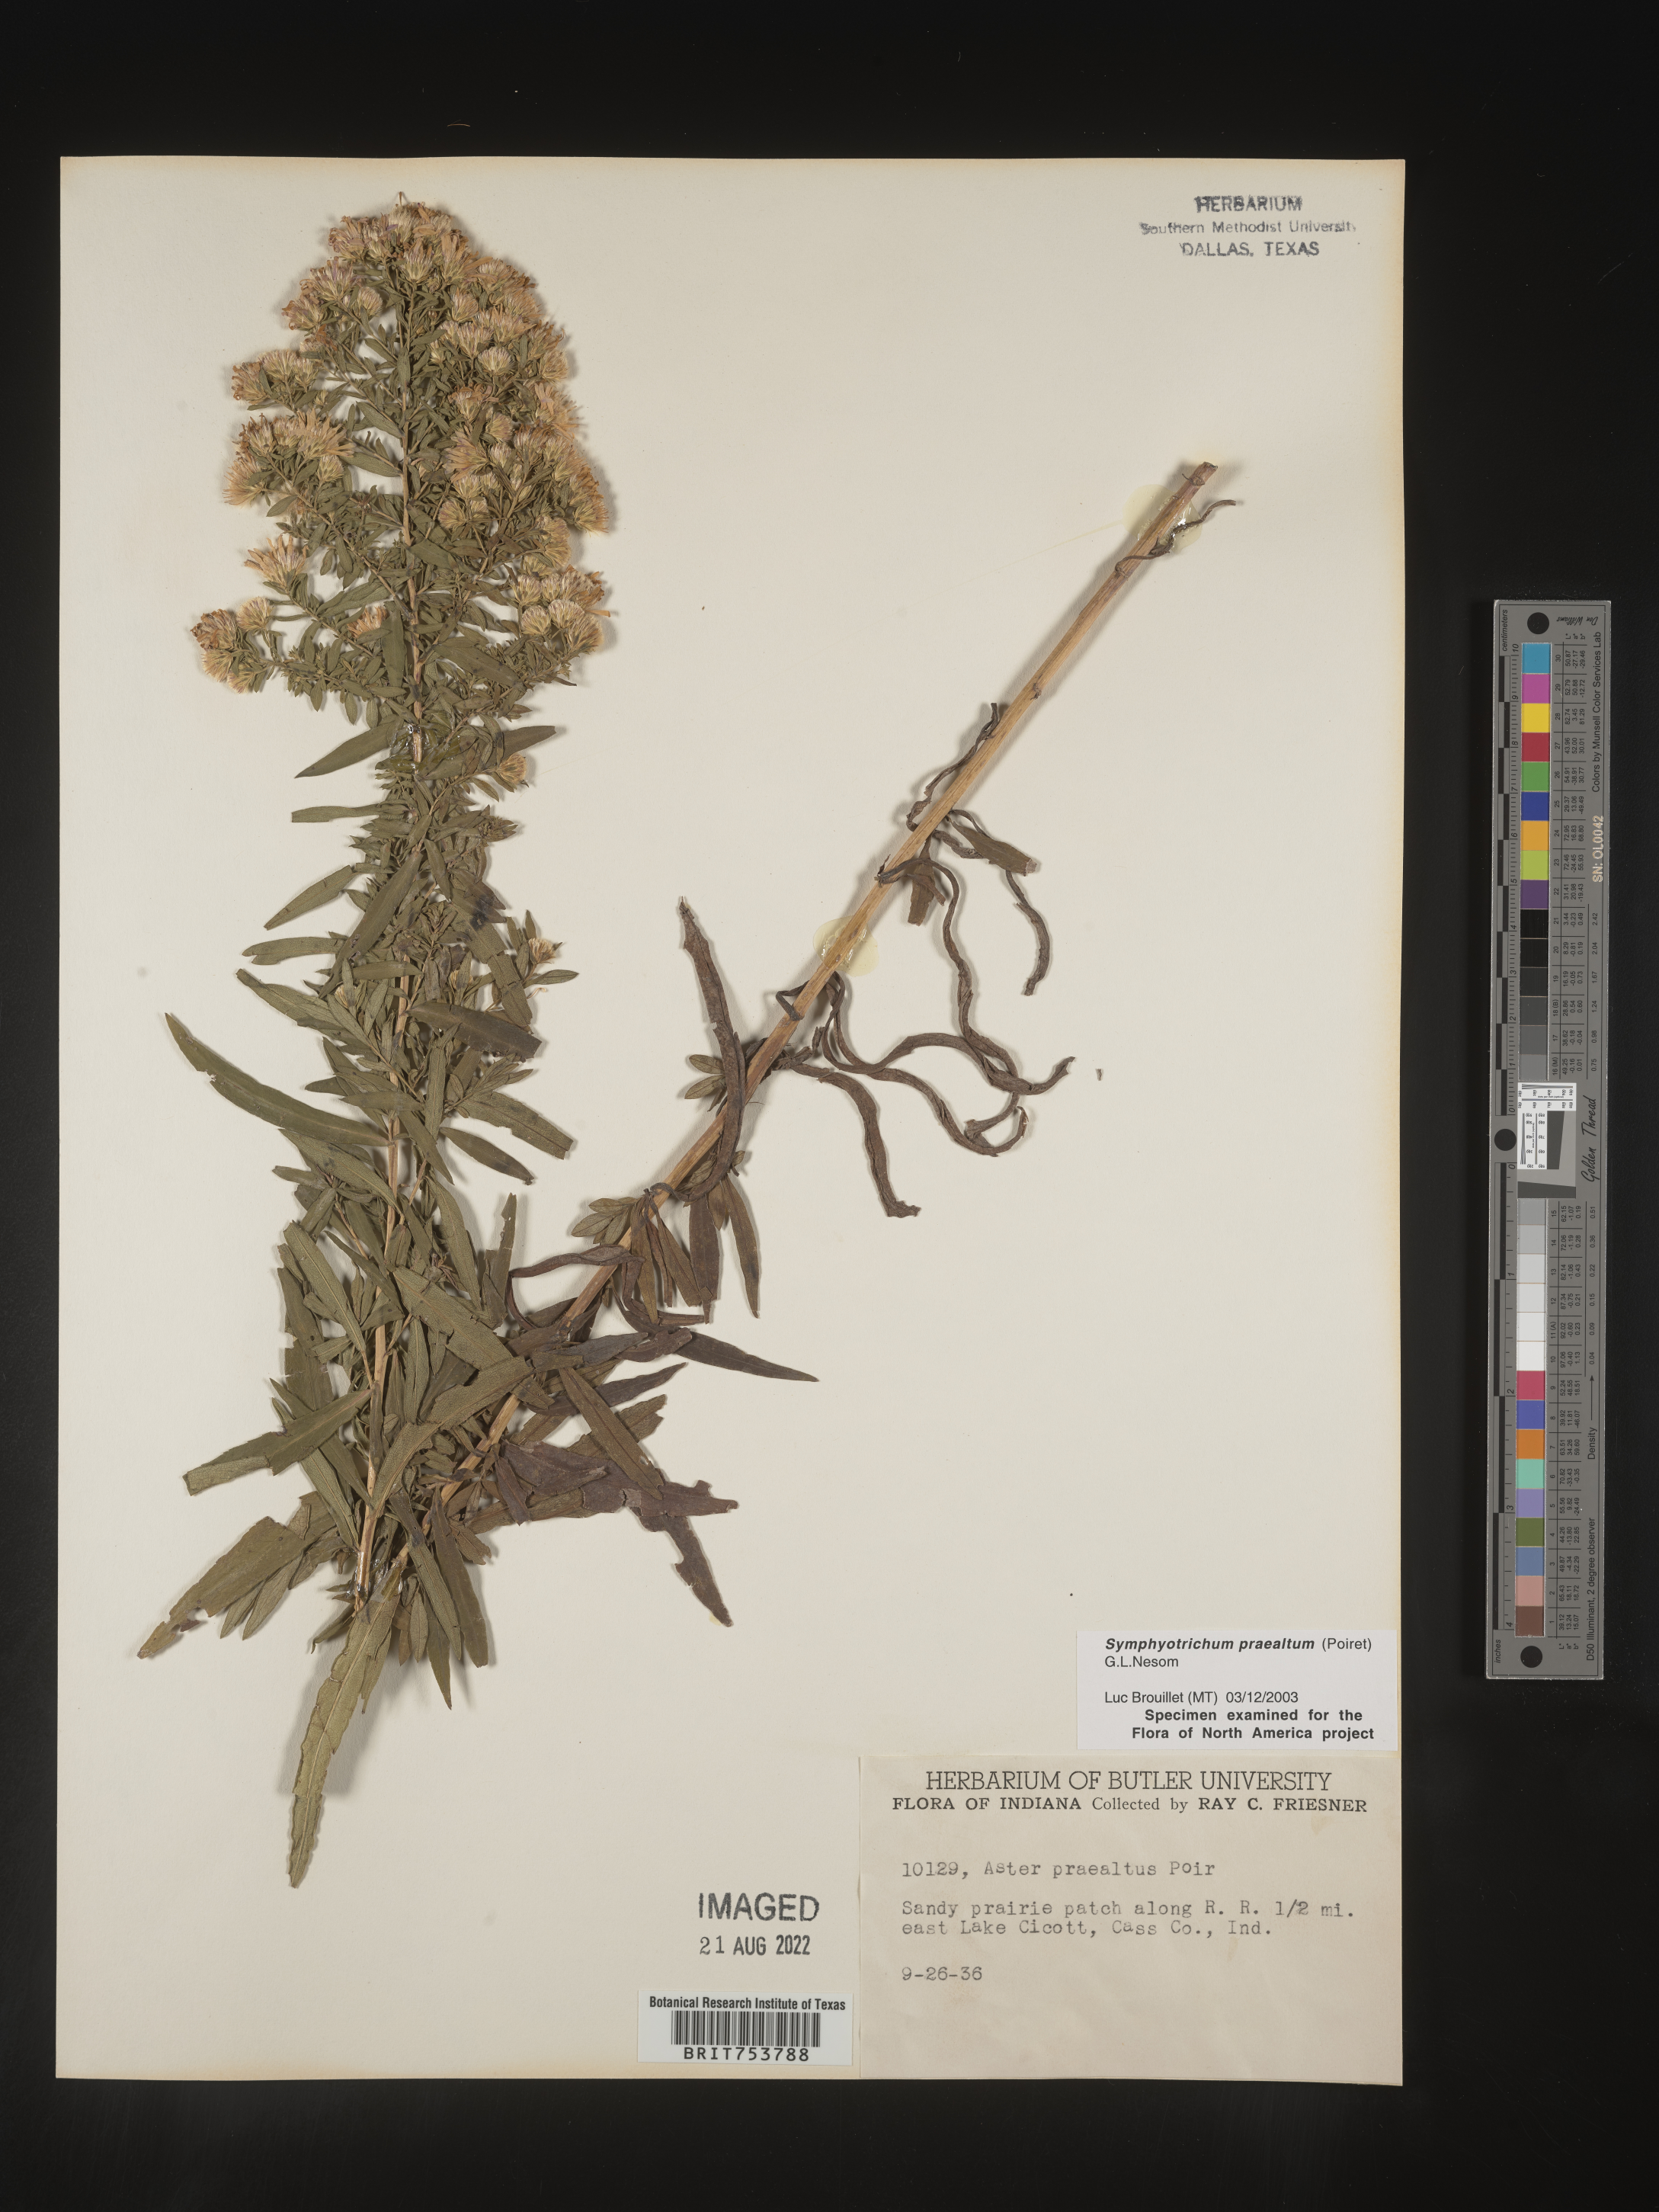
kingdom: Plantae
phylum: Tracheophyta
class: Magnoliopsida
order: Asterales
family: Asteraceae
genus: Symphyotrichum
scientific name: Symphyotrichum praealtum
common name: Willow aster
